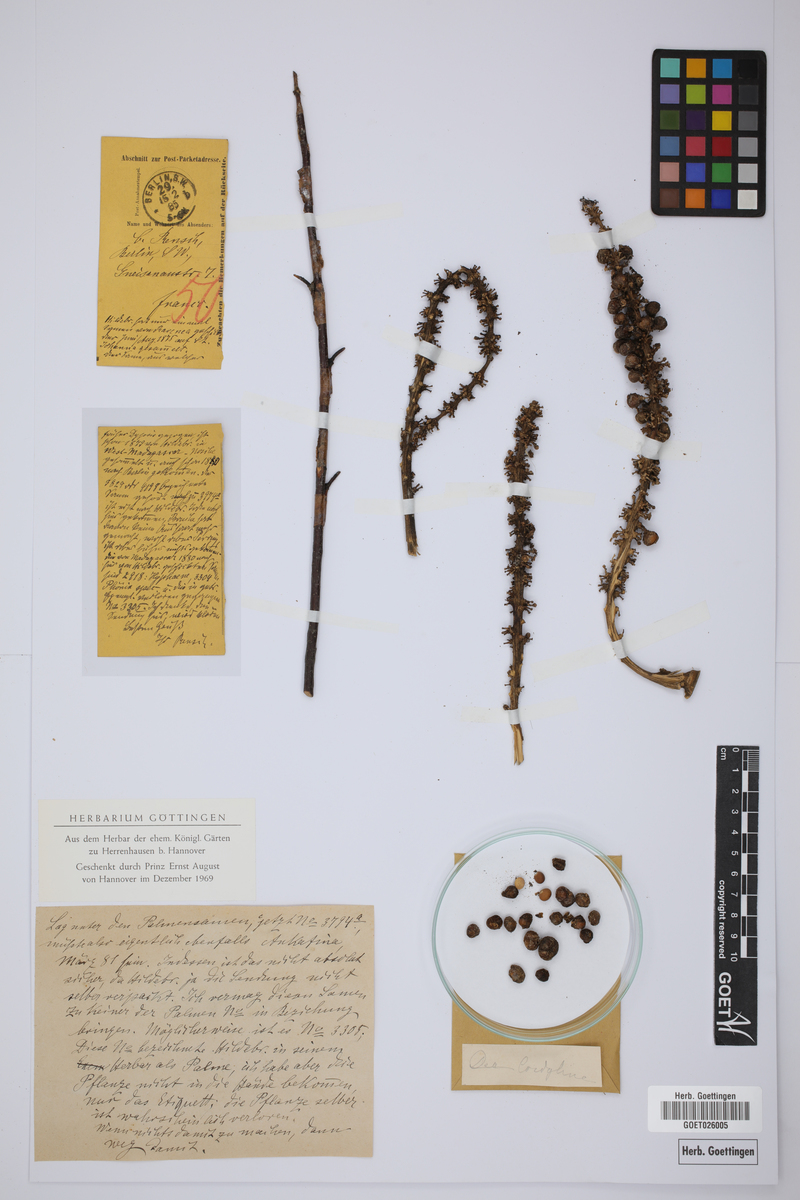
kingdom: Plantae
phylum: Tracheophyta
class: Liliopsida
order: Asparagales
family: Asparagaceae
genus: Cordyline
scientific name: Cordyline
